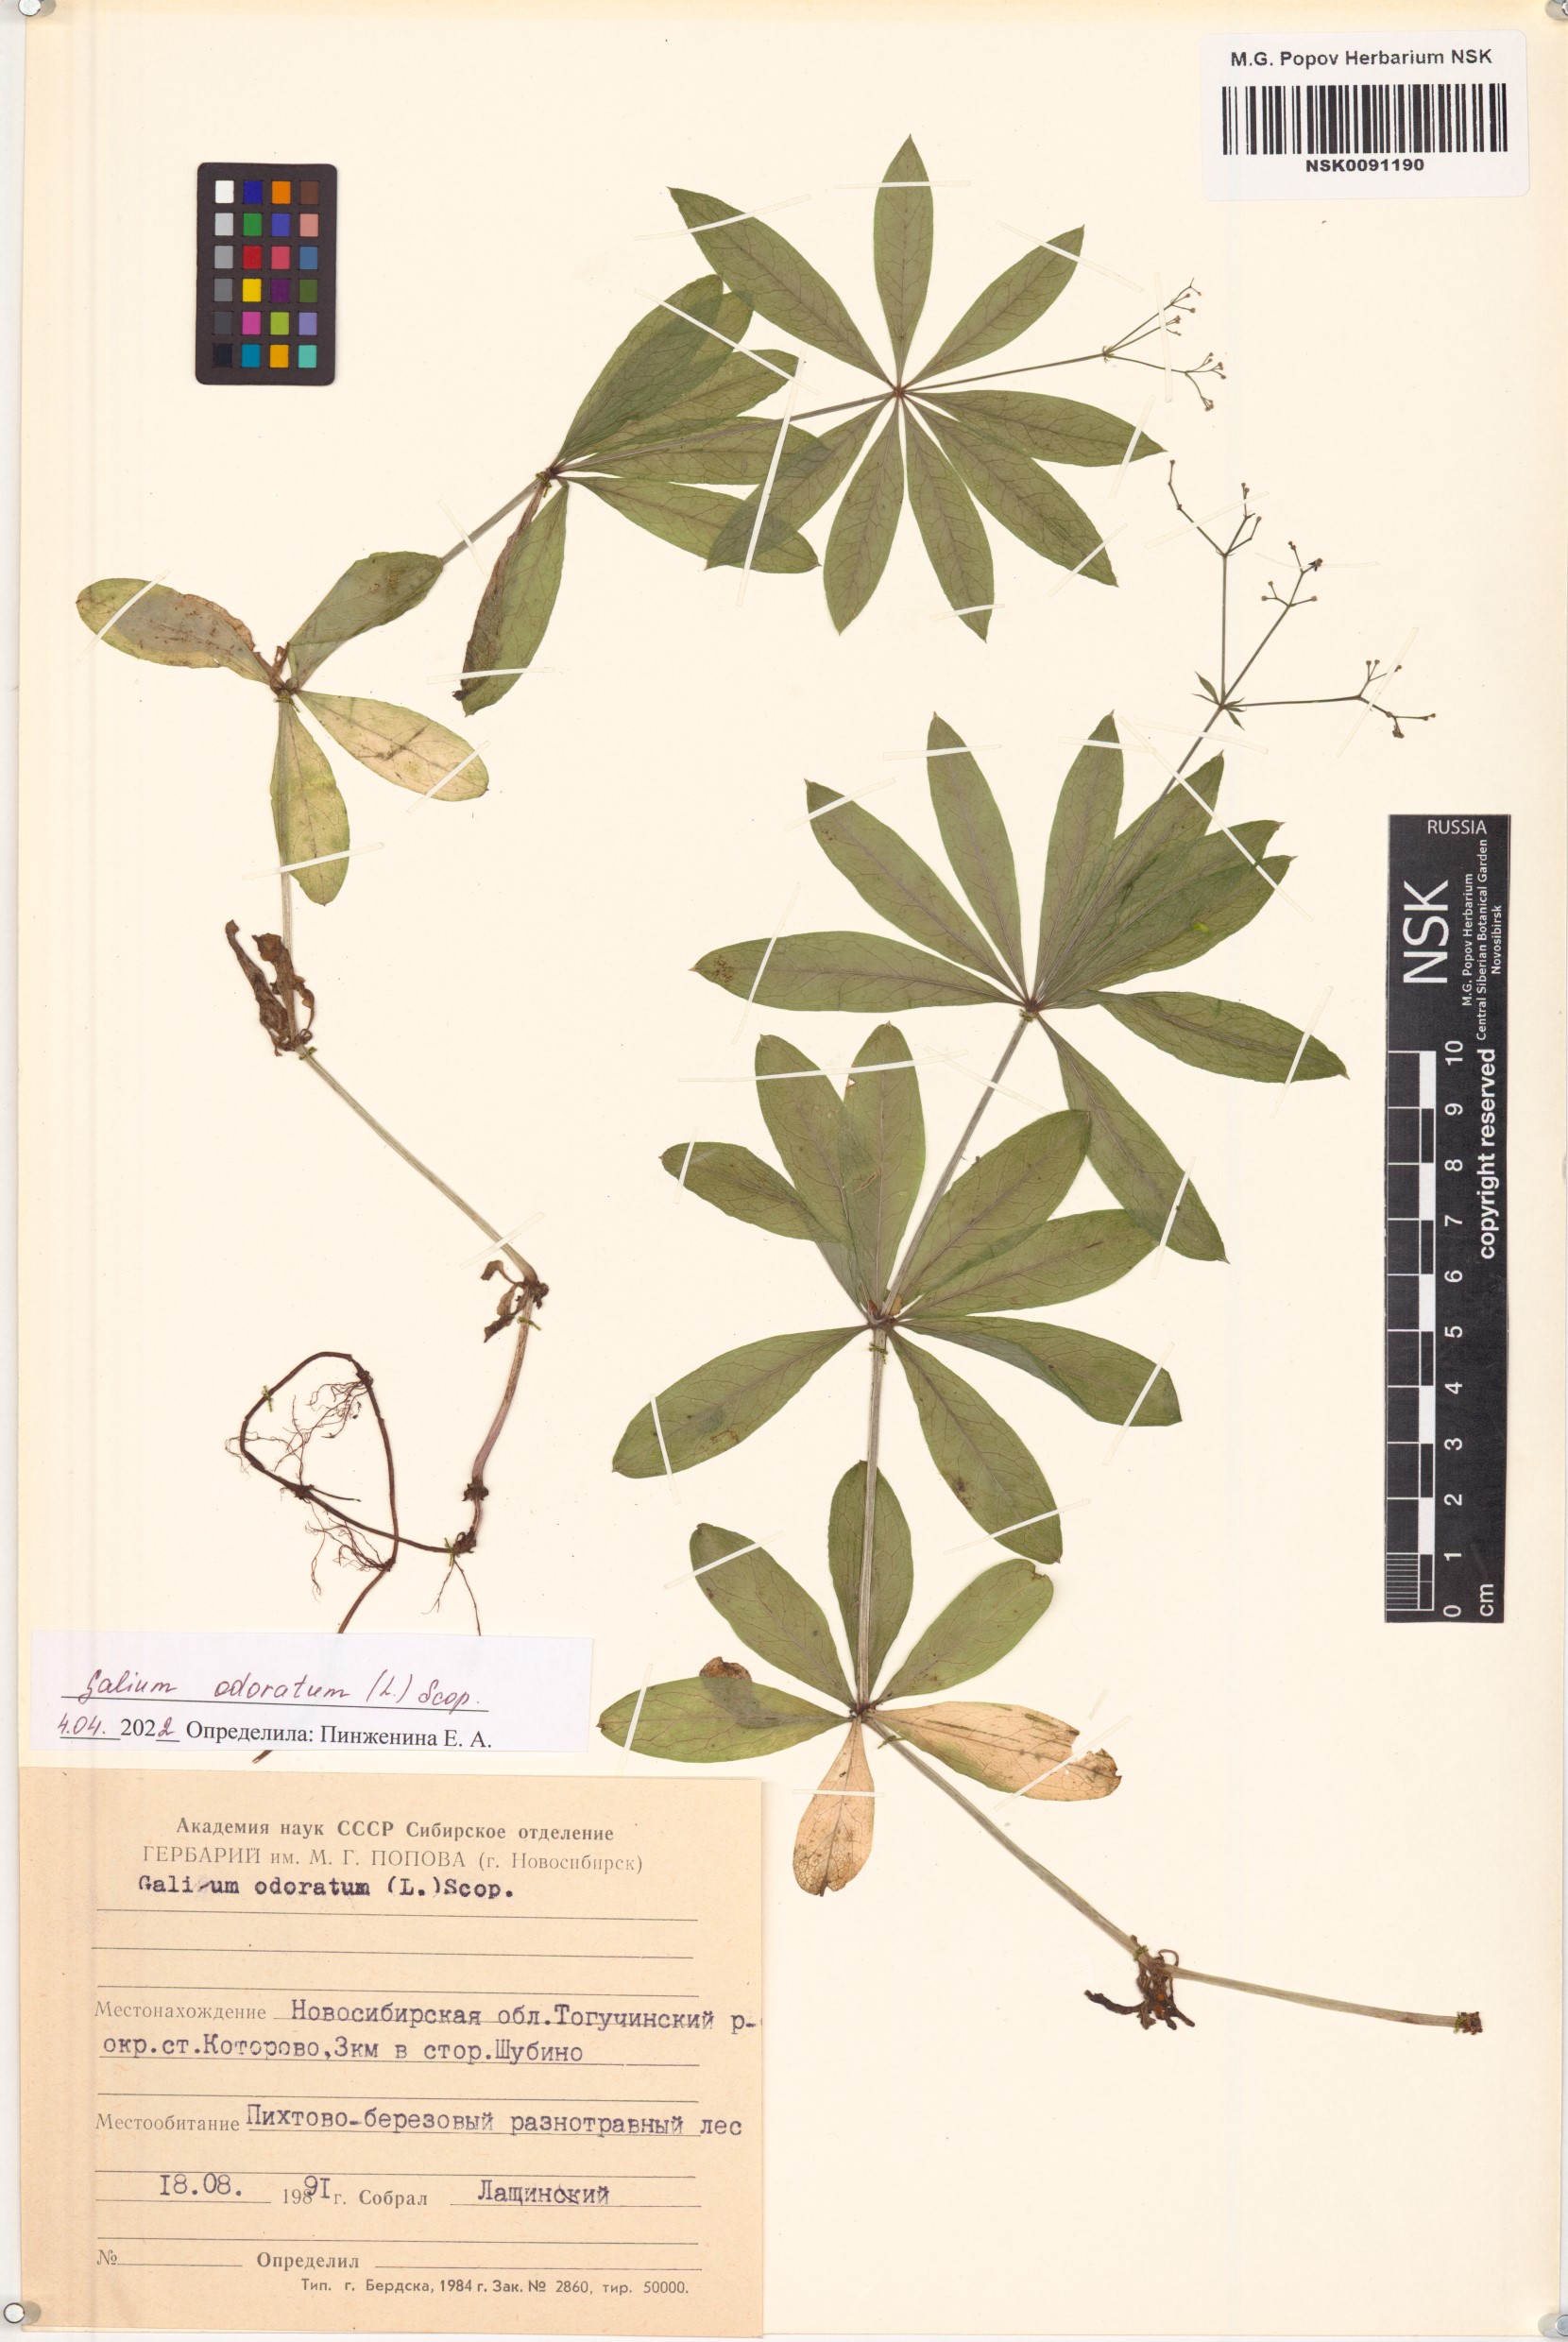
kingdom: Plantae
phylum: Tracheophyta
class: Magnoliopsida
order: Gentianales
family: Rubiaceae
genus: Galium
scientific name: Galium odoratum
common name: Sweet woodruff
